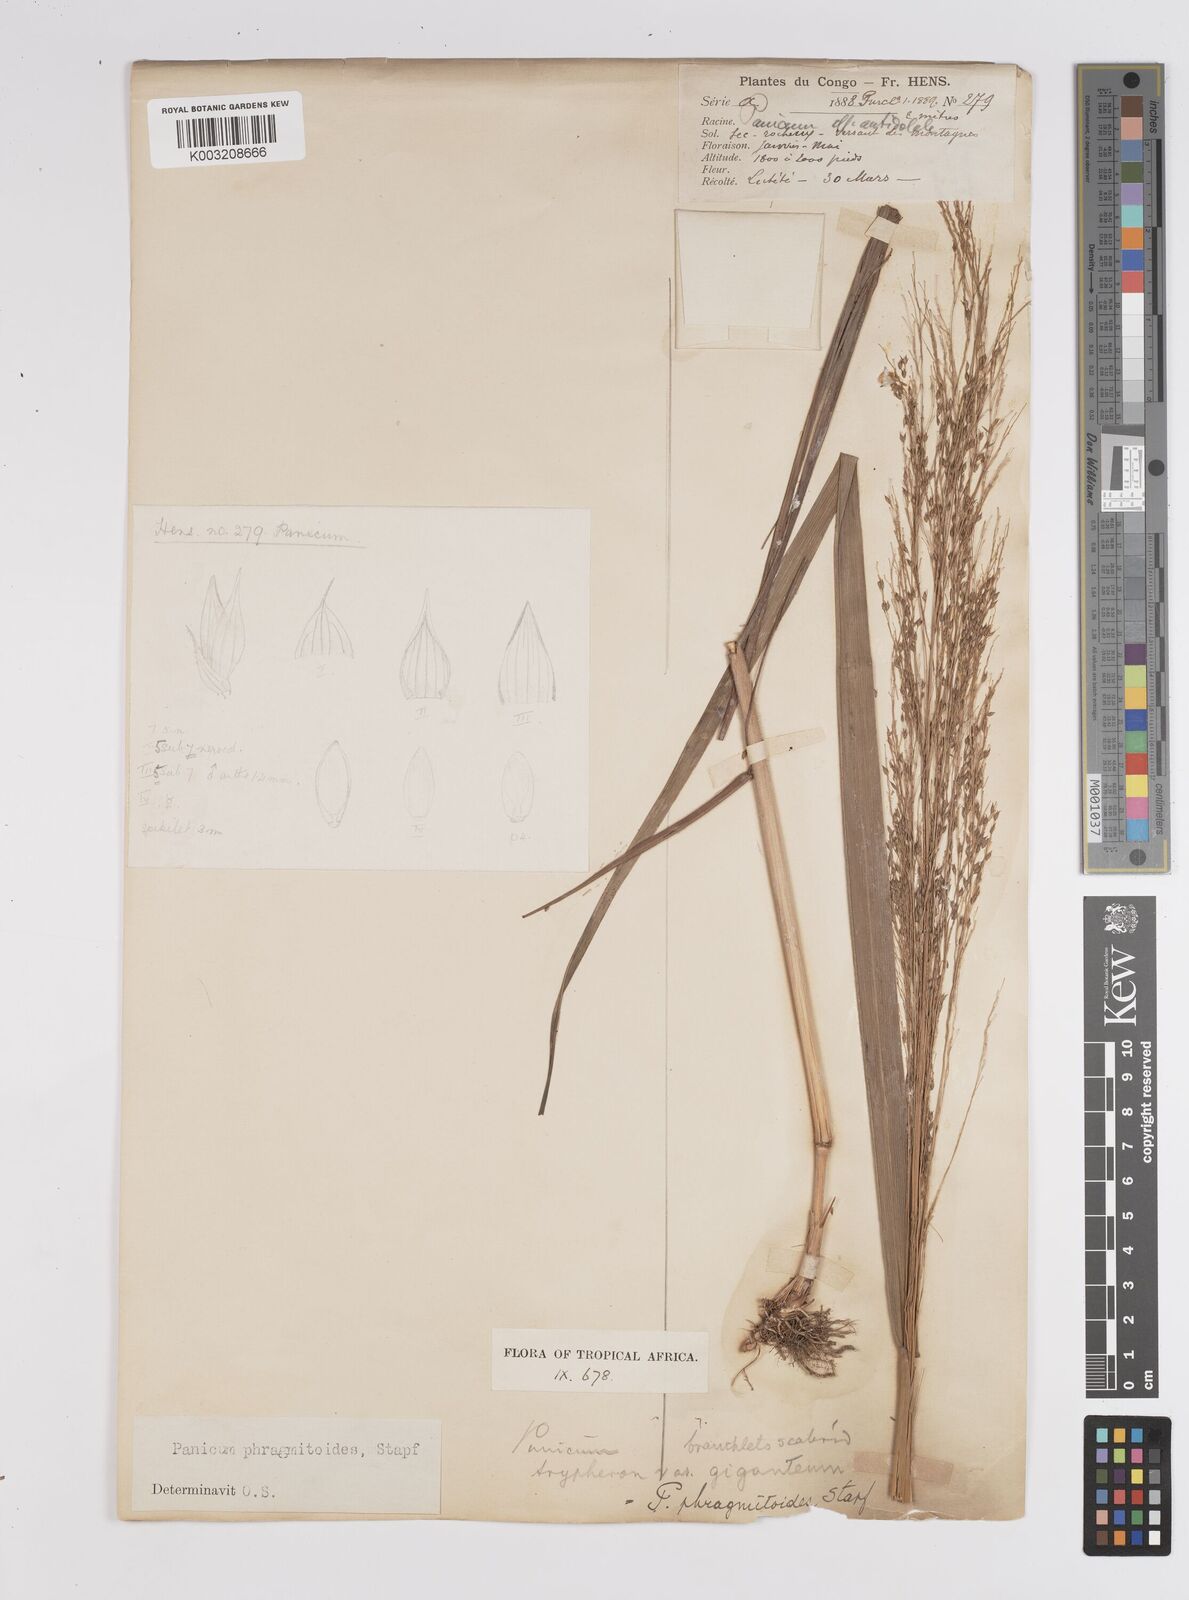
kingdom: Plantae
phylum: Tracheophyta
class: Liliopsida
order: Poales
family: Poaceae
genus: Panicum
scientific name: Panicum phragmitoides
